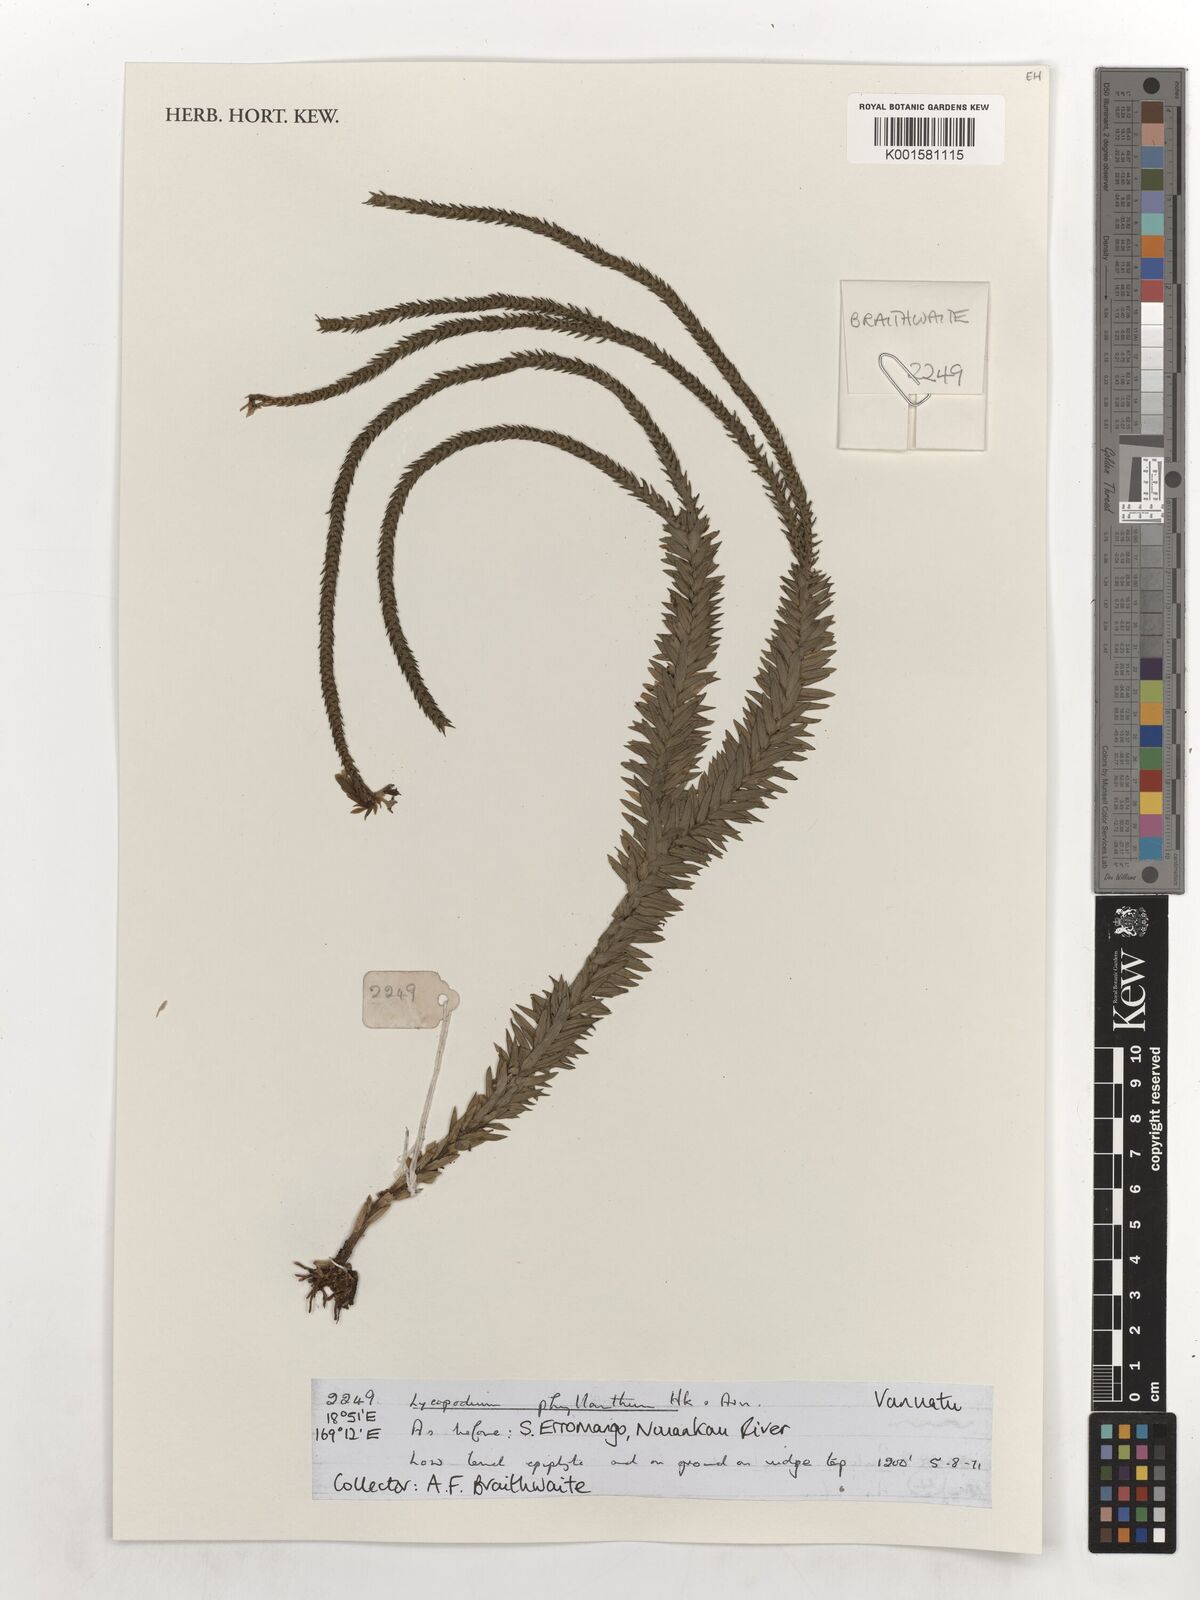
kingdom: Plantae
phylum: Tracheophyta
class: Lycopodiopsida
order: Lycopodiales
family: Lycopodiaceae
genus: Phlegmariurus
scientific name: Phlegmariurus phyllanthus
